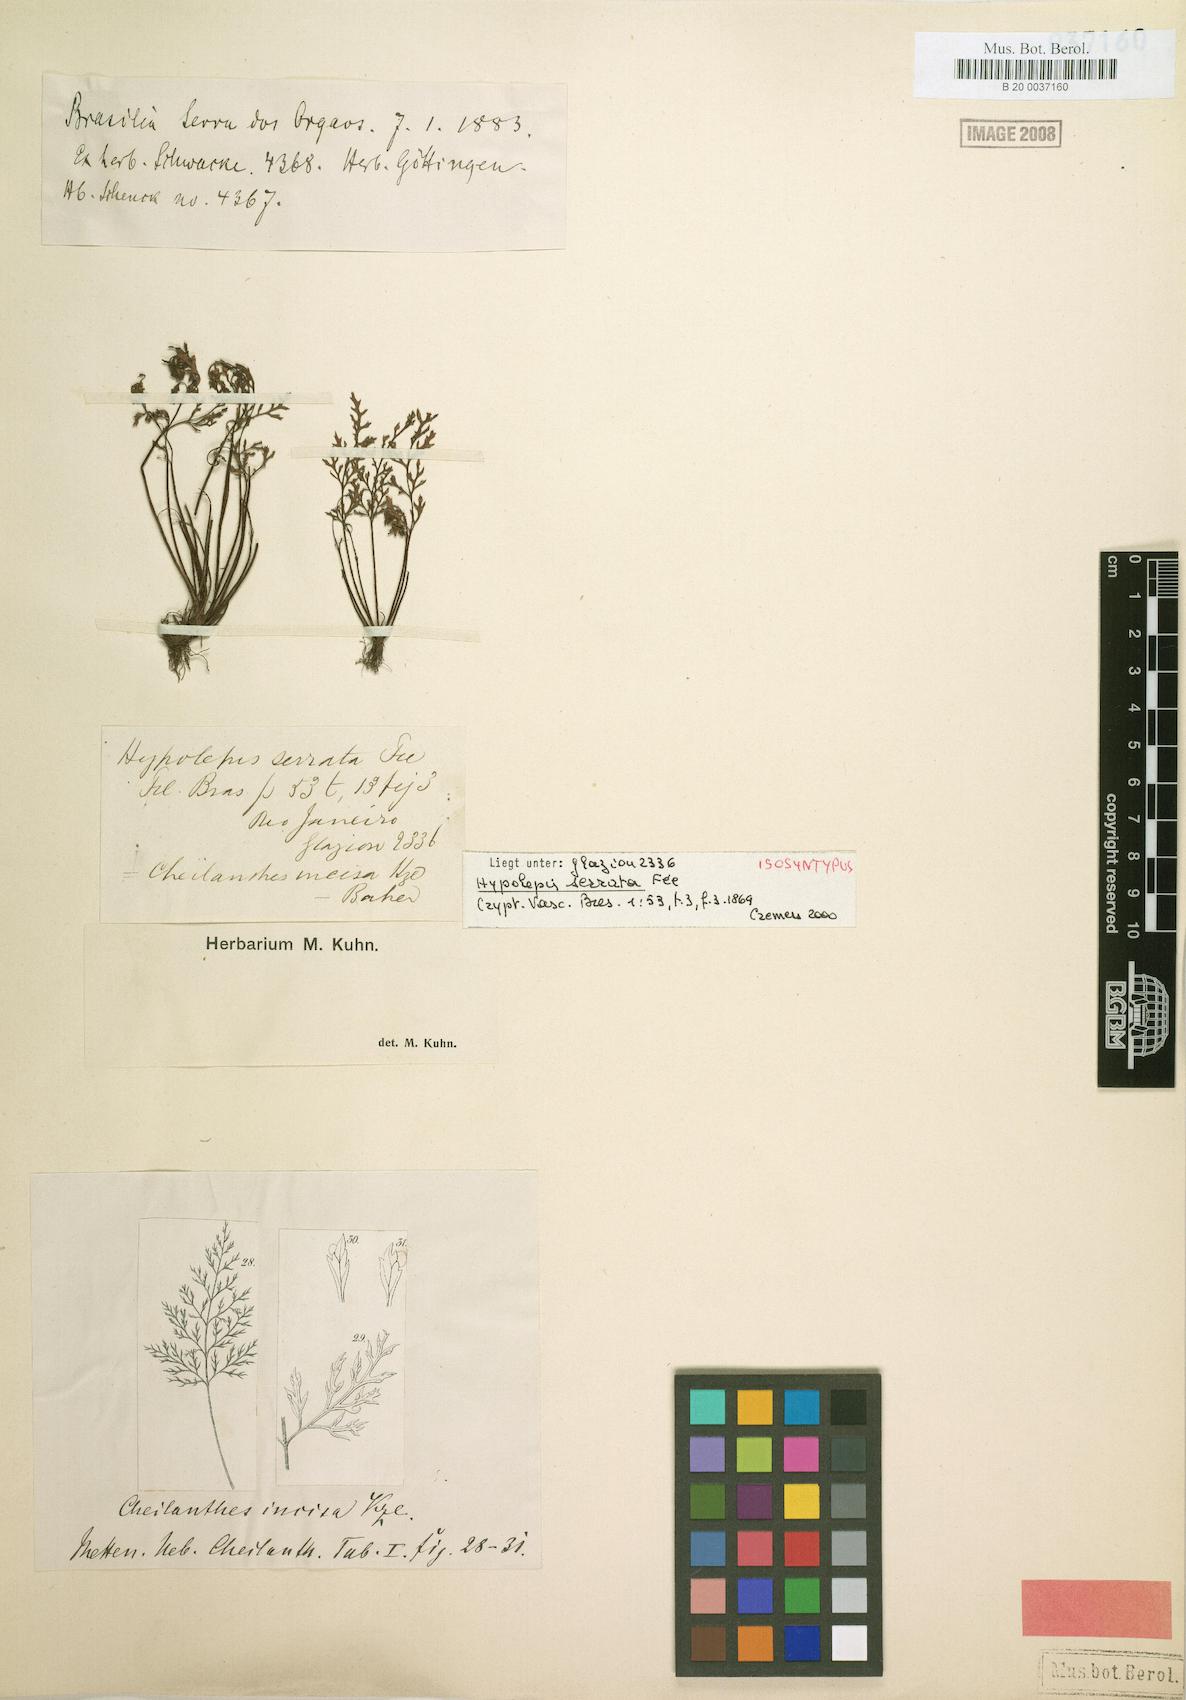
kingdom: Plantae
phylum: Tracheophyta
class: Polypodiopsida
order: Polypodiales
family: Pteridaceae
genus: Cheilanthes
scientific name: Cheilanthes incisa
